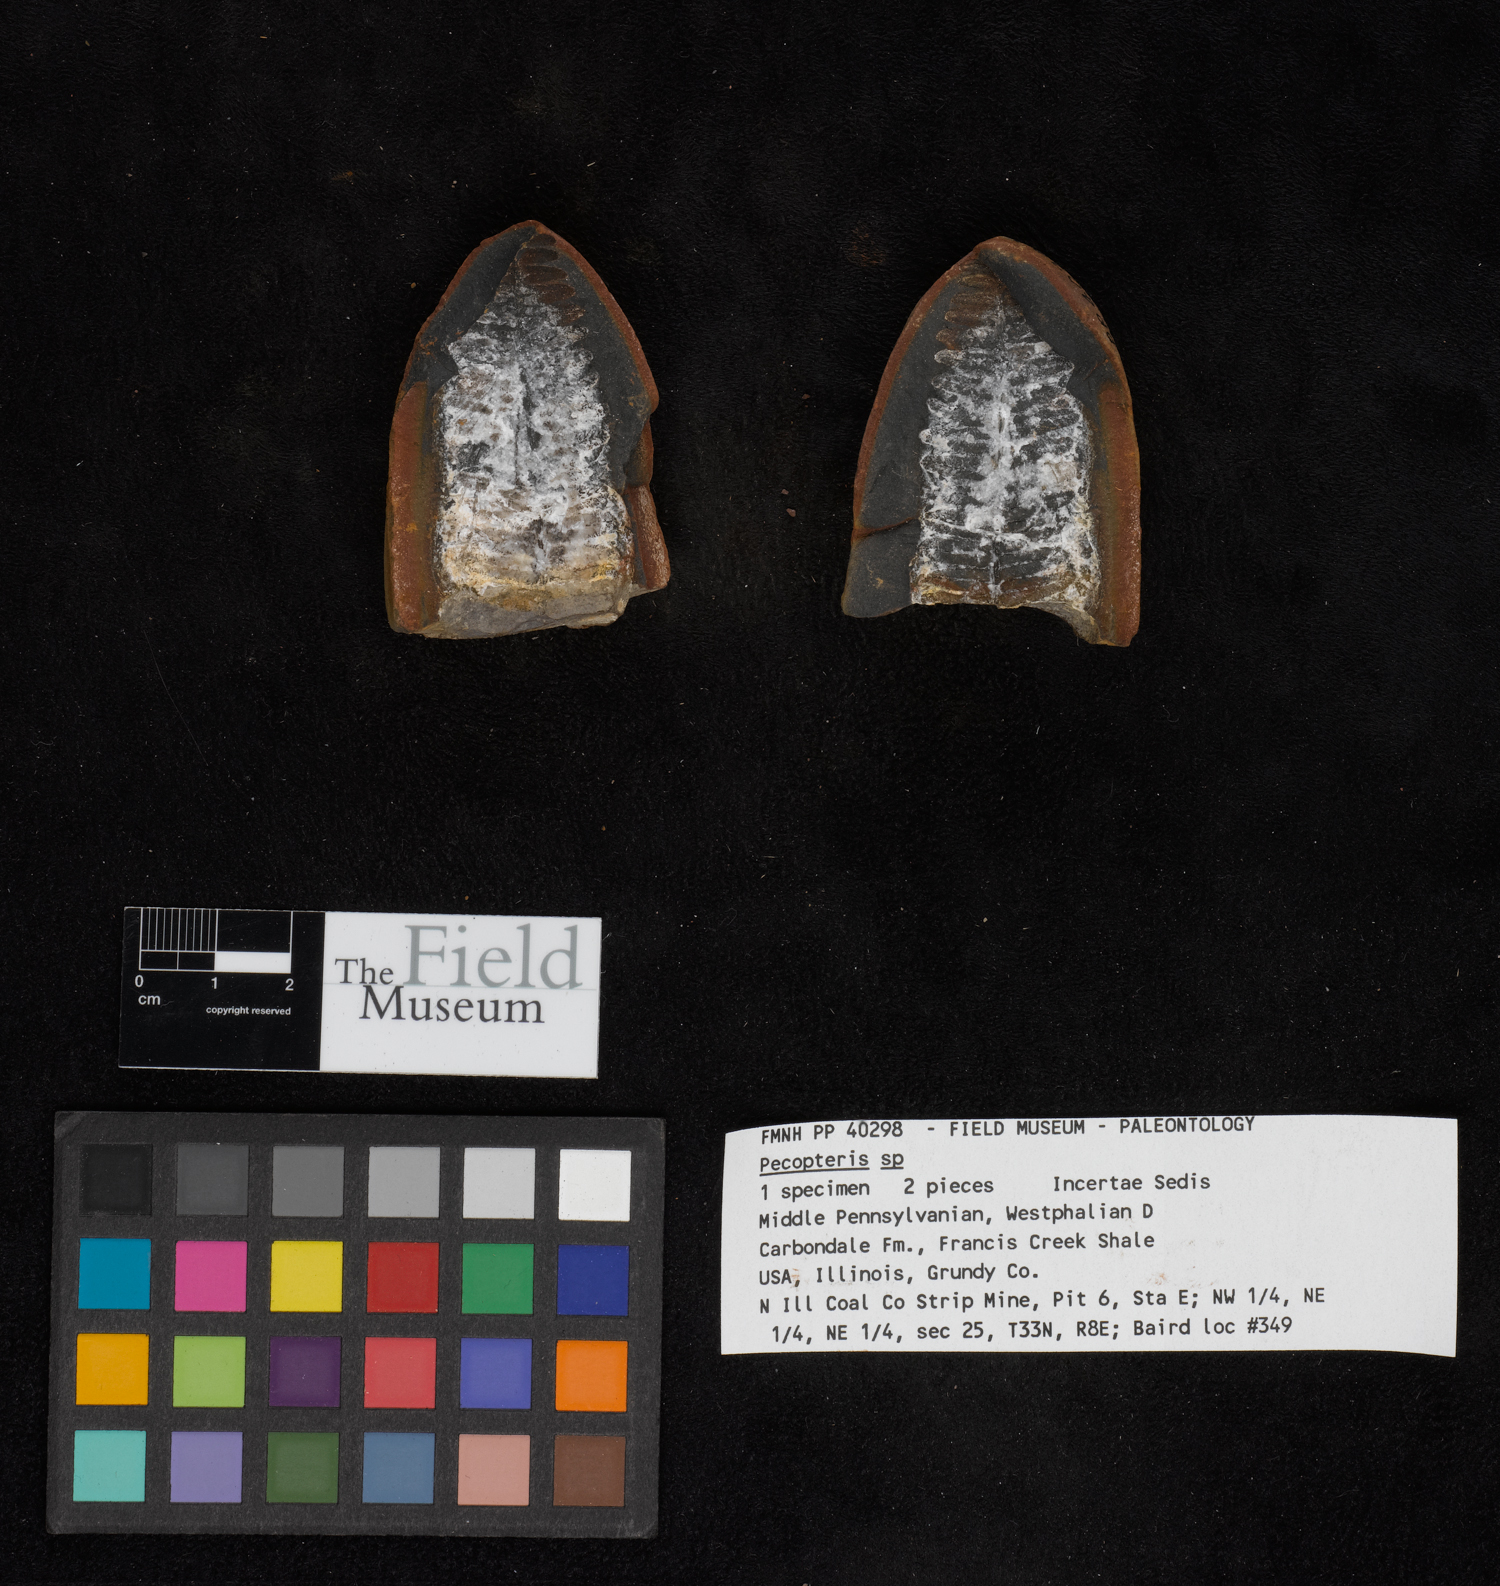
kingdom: Plantae
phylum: Tracheophyta
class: Polypodiopsida
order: Marattiales
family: Asterothecaceae
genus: Pecopteris
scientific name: Pecopteris
